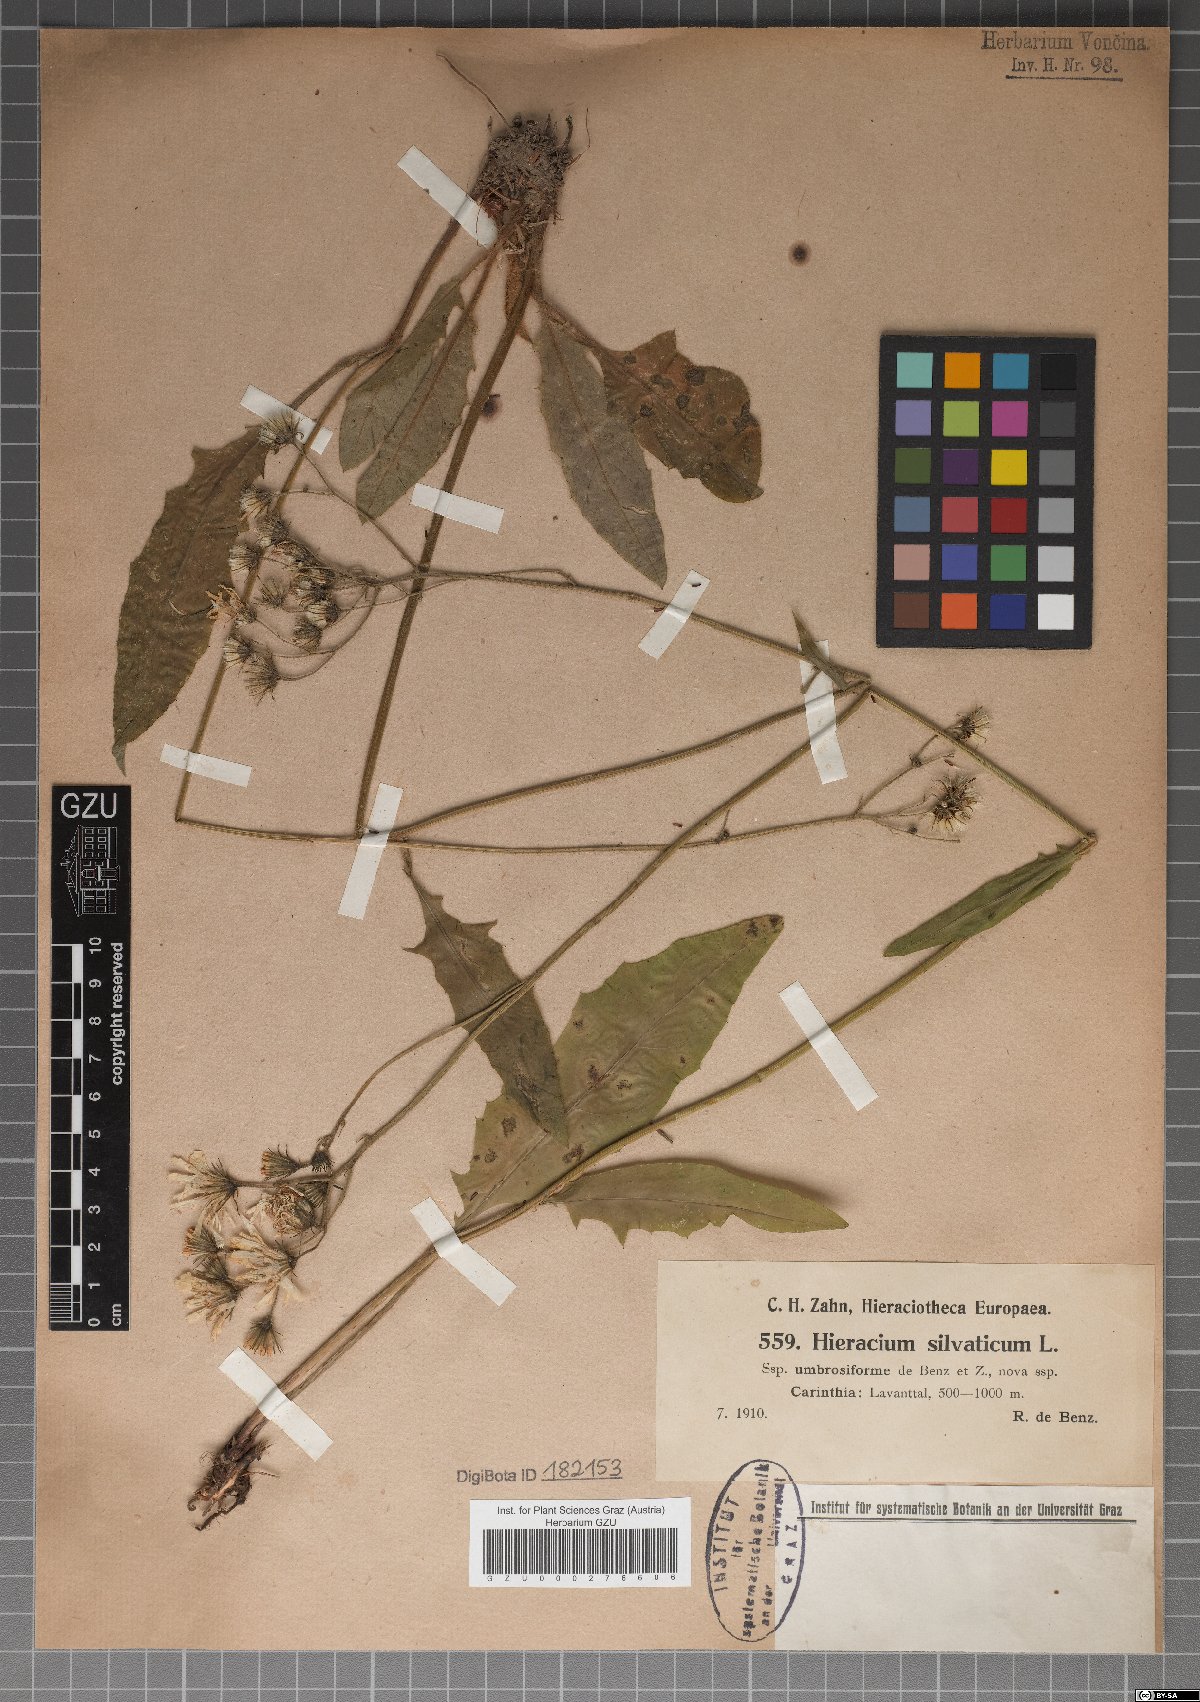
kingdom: Plantae
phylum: Tracheophyta
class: Magnoliopsida
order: Asterales
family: Asteraceae
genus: Hieracium
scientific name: Hieracium sylvaticum
